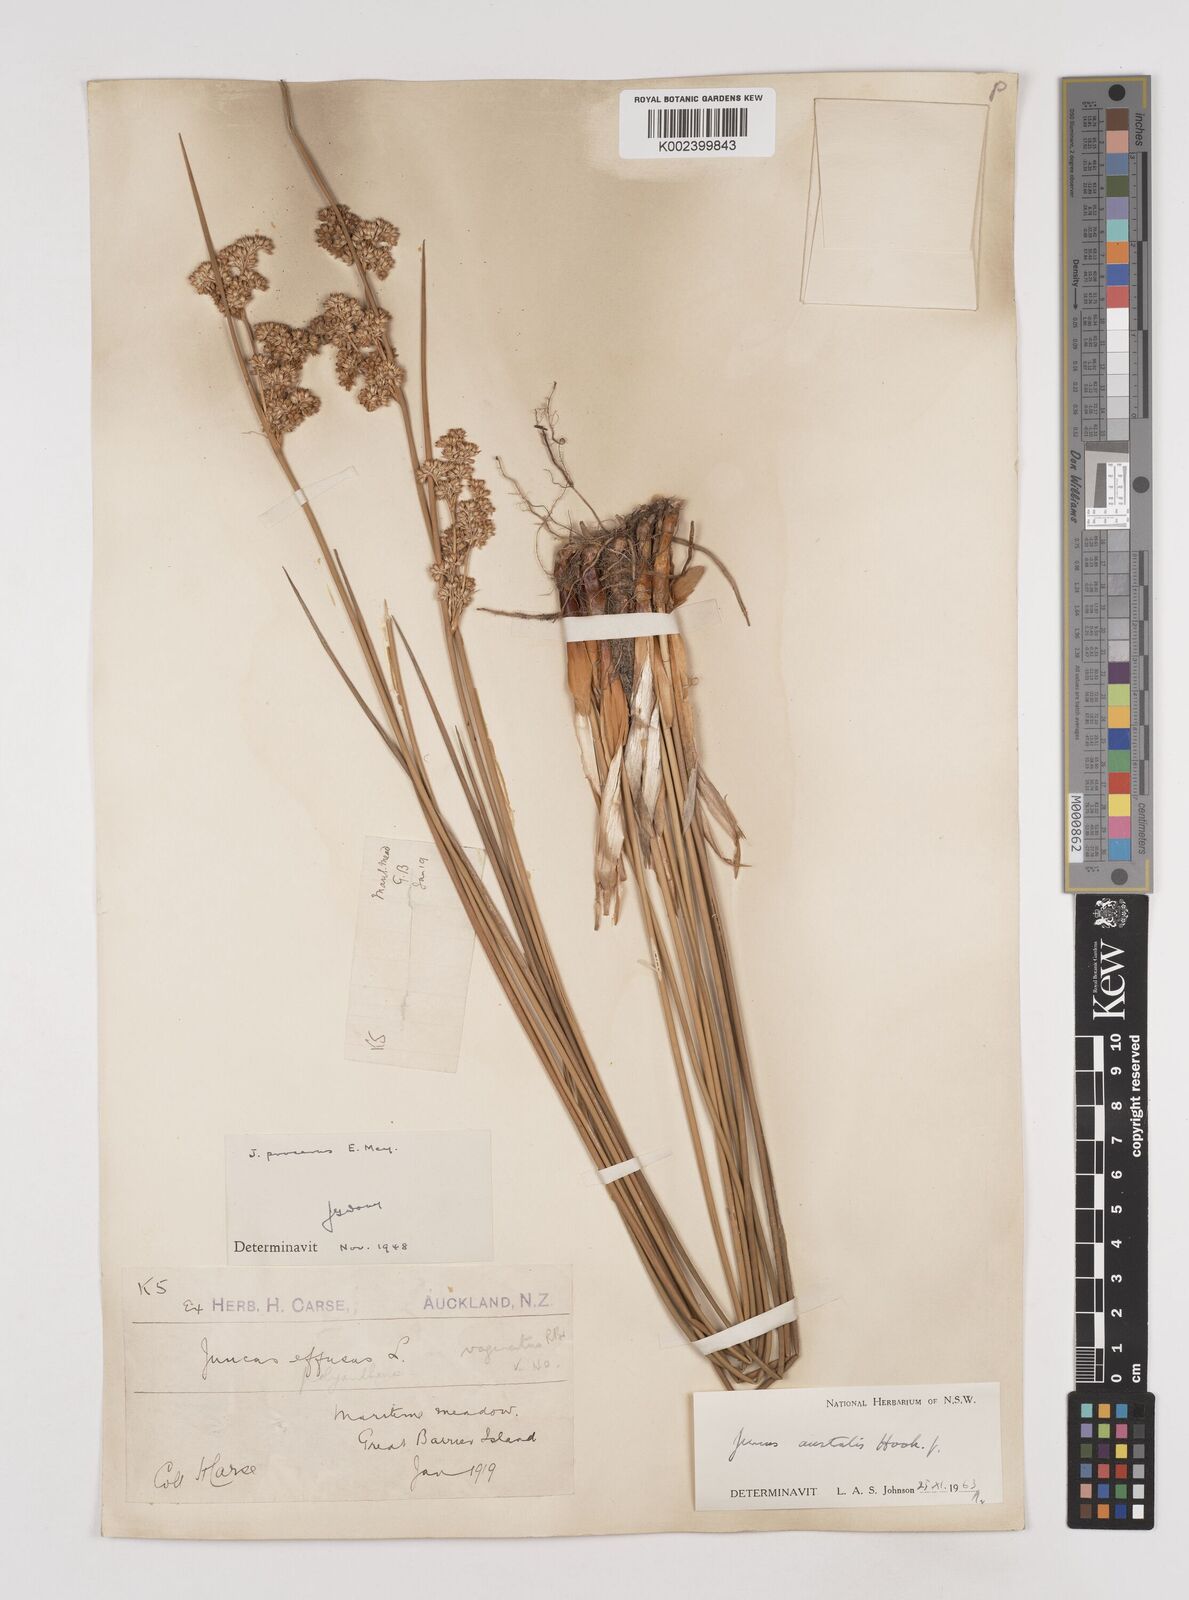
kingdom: Plantae
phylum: Tracheophyta
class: Liliopsida
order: Poales
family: Juncaceae
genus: Juncus
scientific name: Juncus australis
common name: Austral rush
